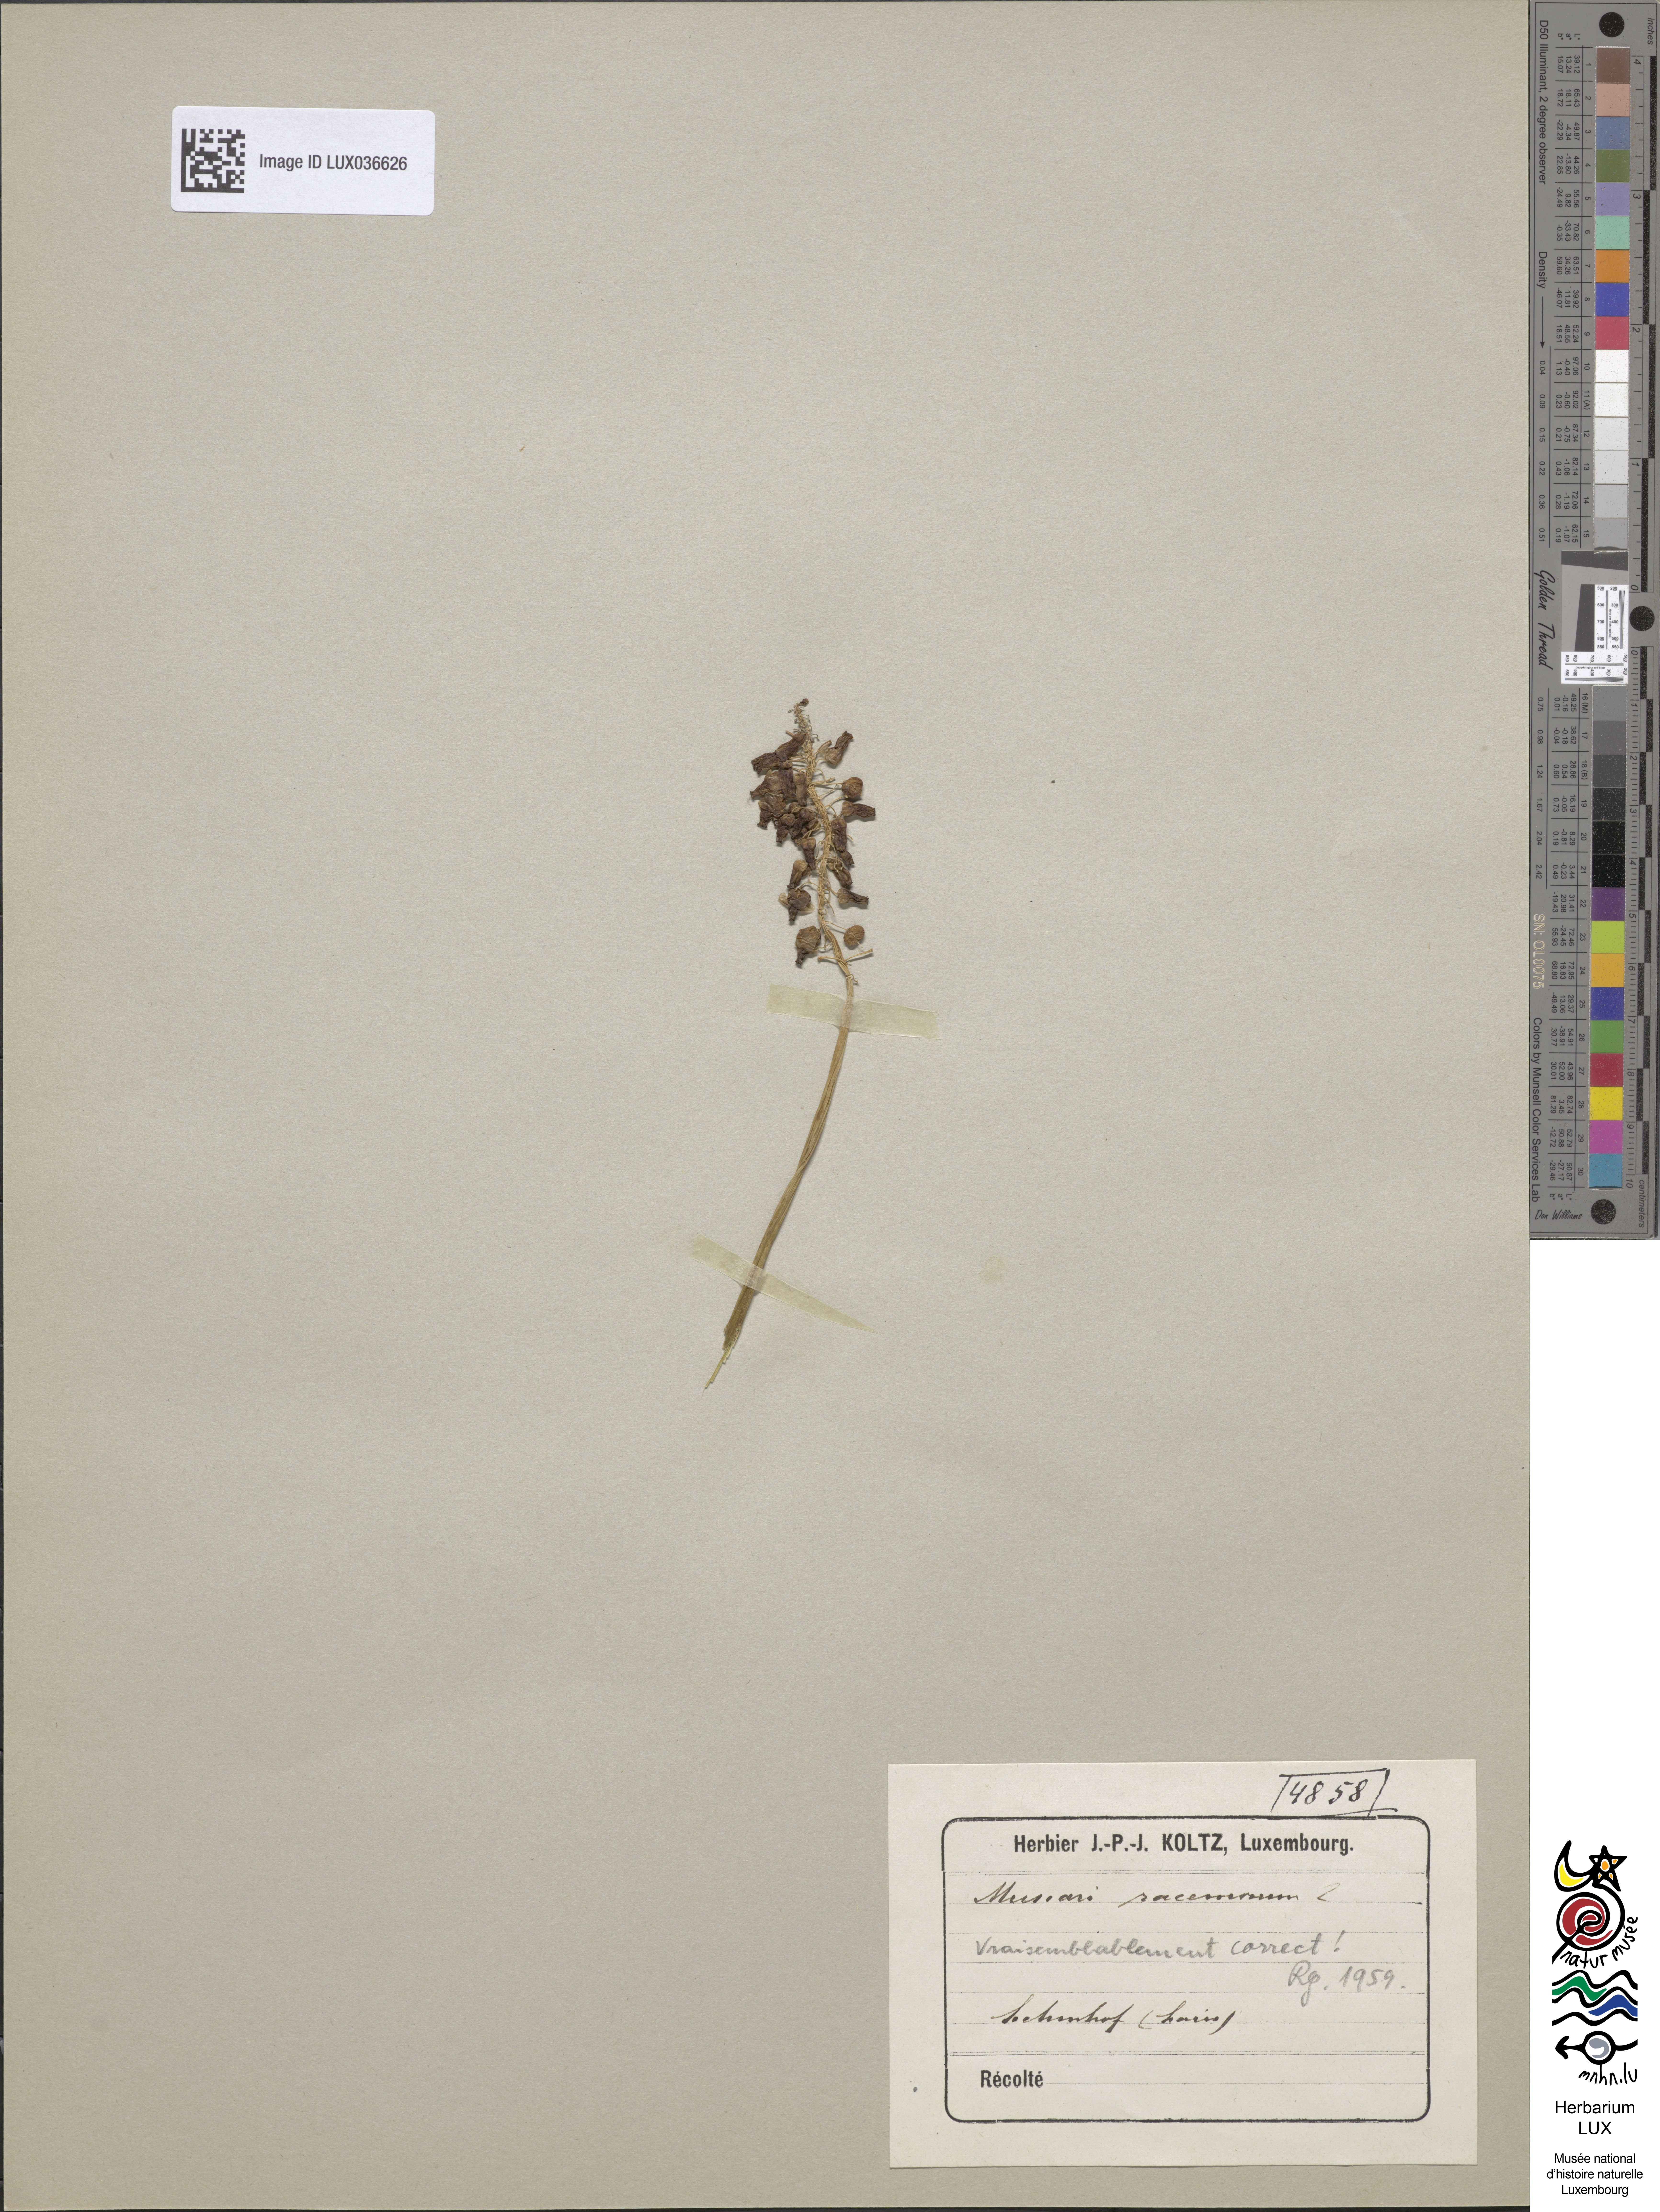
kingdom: Plantae
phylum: Tracheophyta
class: Liliopsida
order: Asparagales
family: Asparagaceae
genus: Muscari
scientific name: Muscari atlanticum
